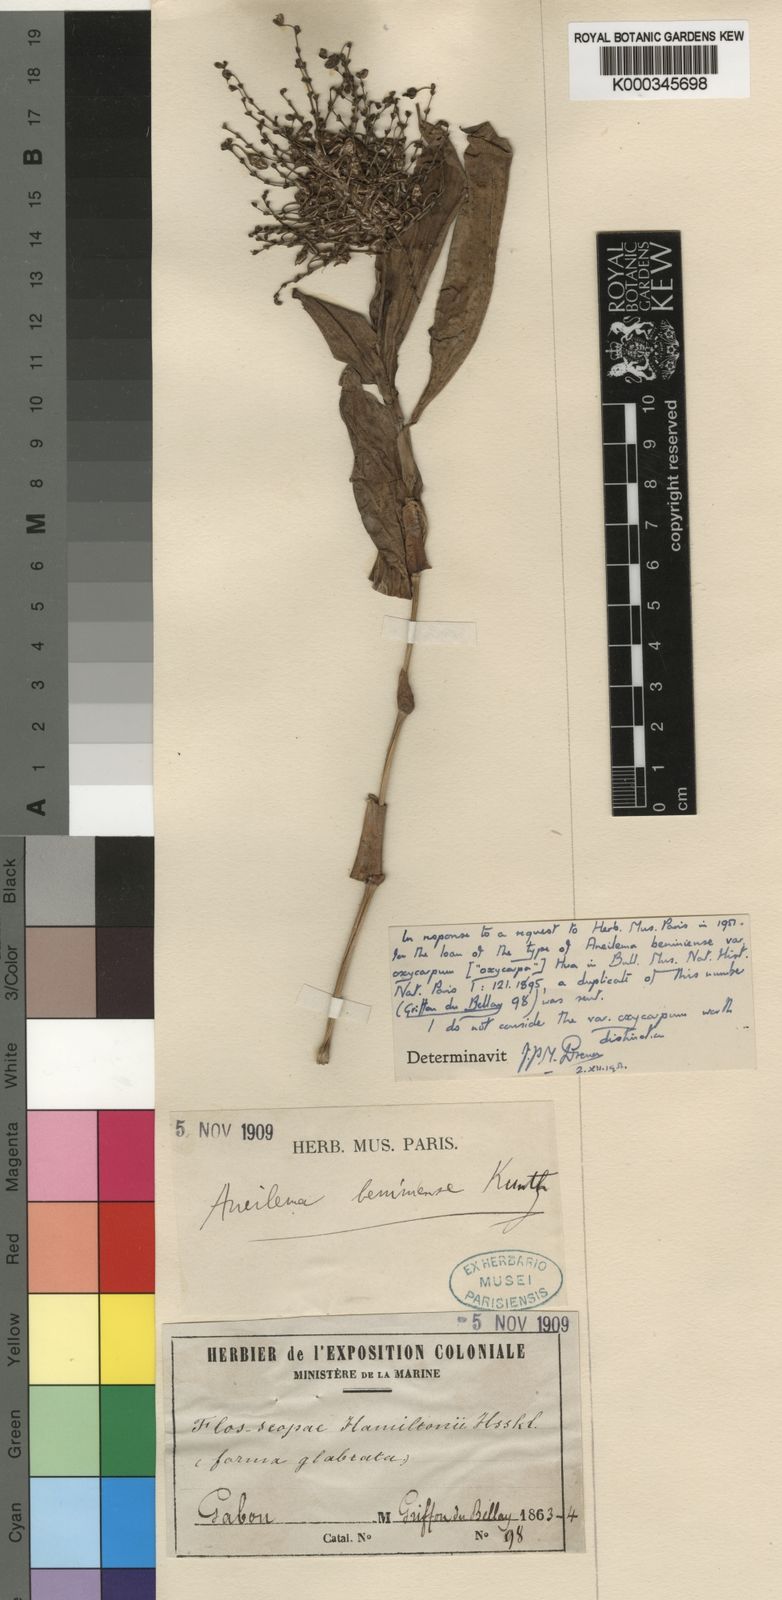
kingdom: Plantae
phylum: Tracheophyta
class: Liliopsida
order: Commelinales
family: Commelinaceae
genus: Aneilema
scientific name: Aneilema beniniense
